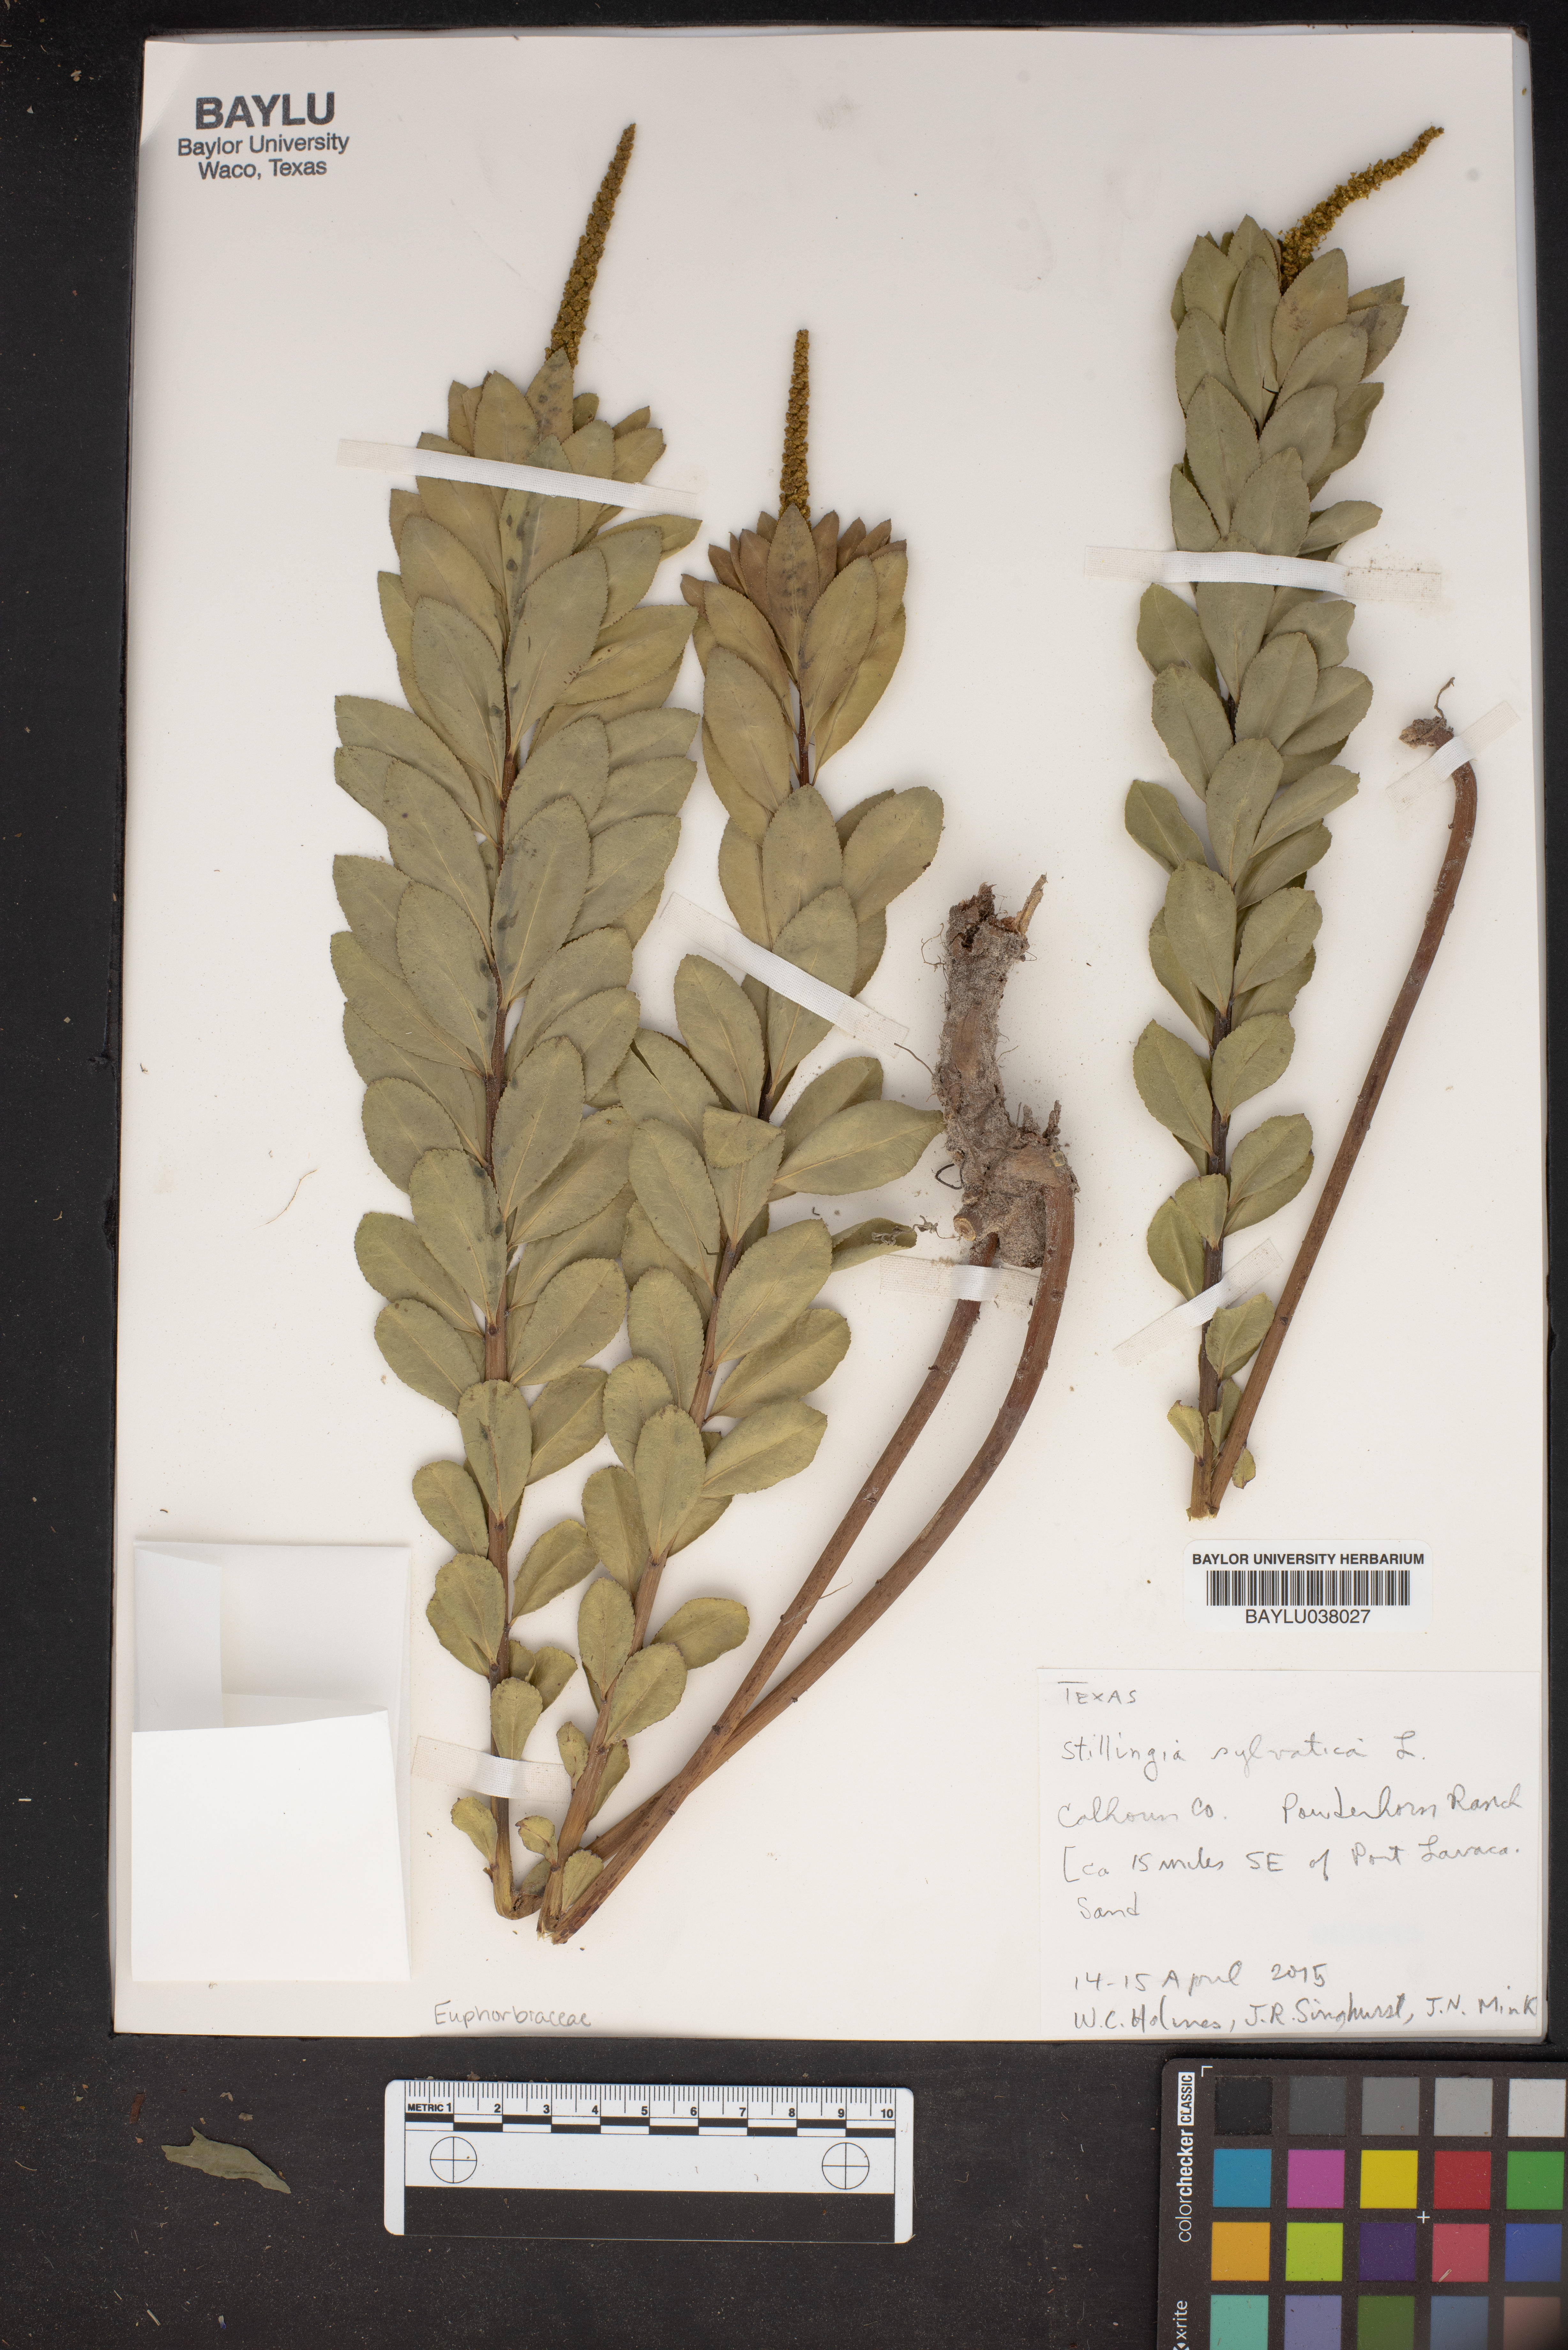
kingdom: Plantae
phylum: Tracheophyta
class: Magnoliopsida
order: Malpighiales
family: Euphorbiaceae
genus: Stillingia
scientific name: Stillingia sylvatica
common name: Queen's-delight
